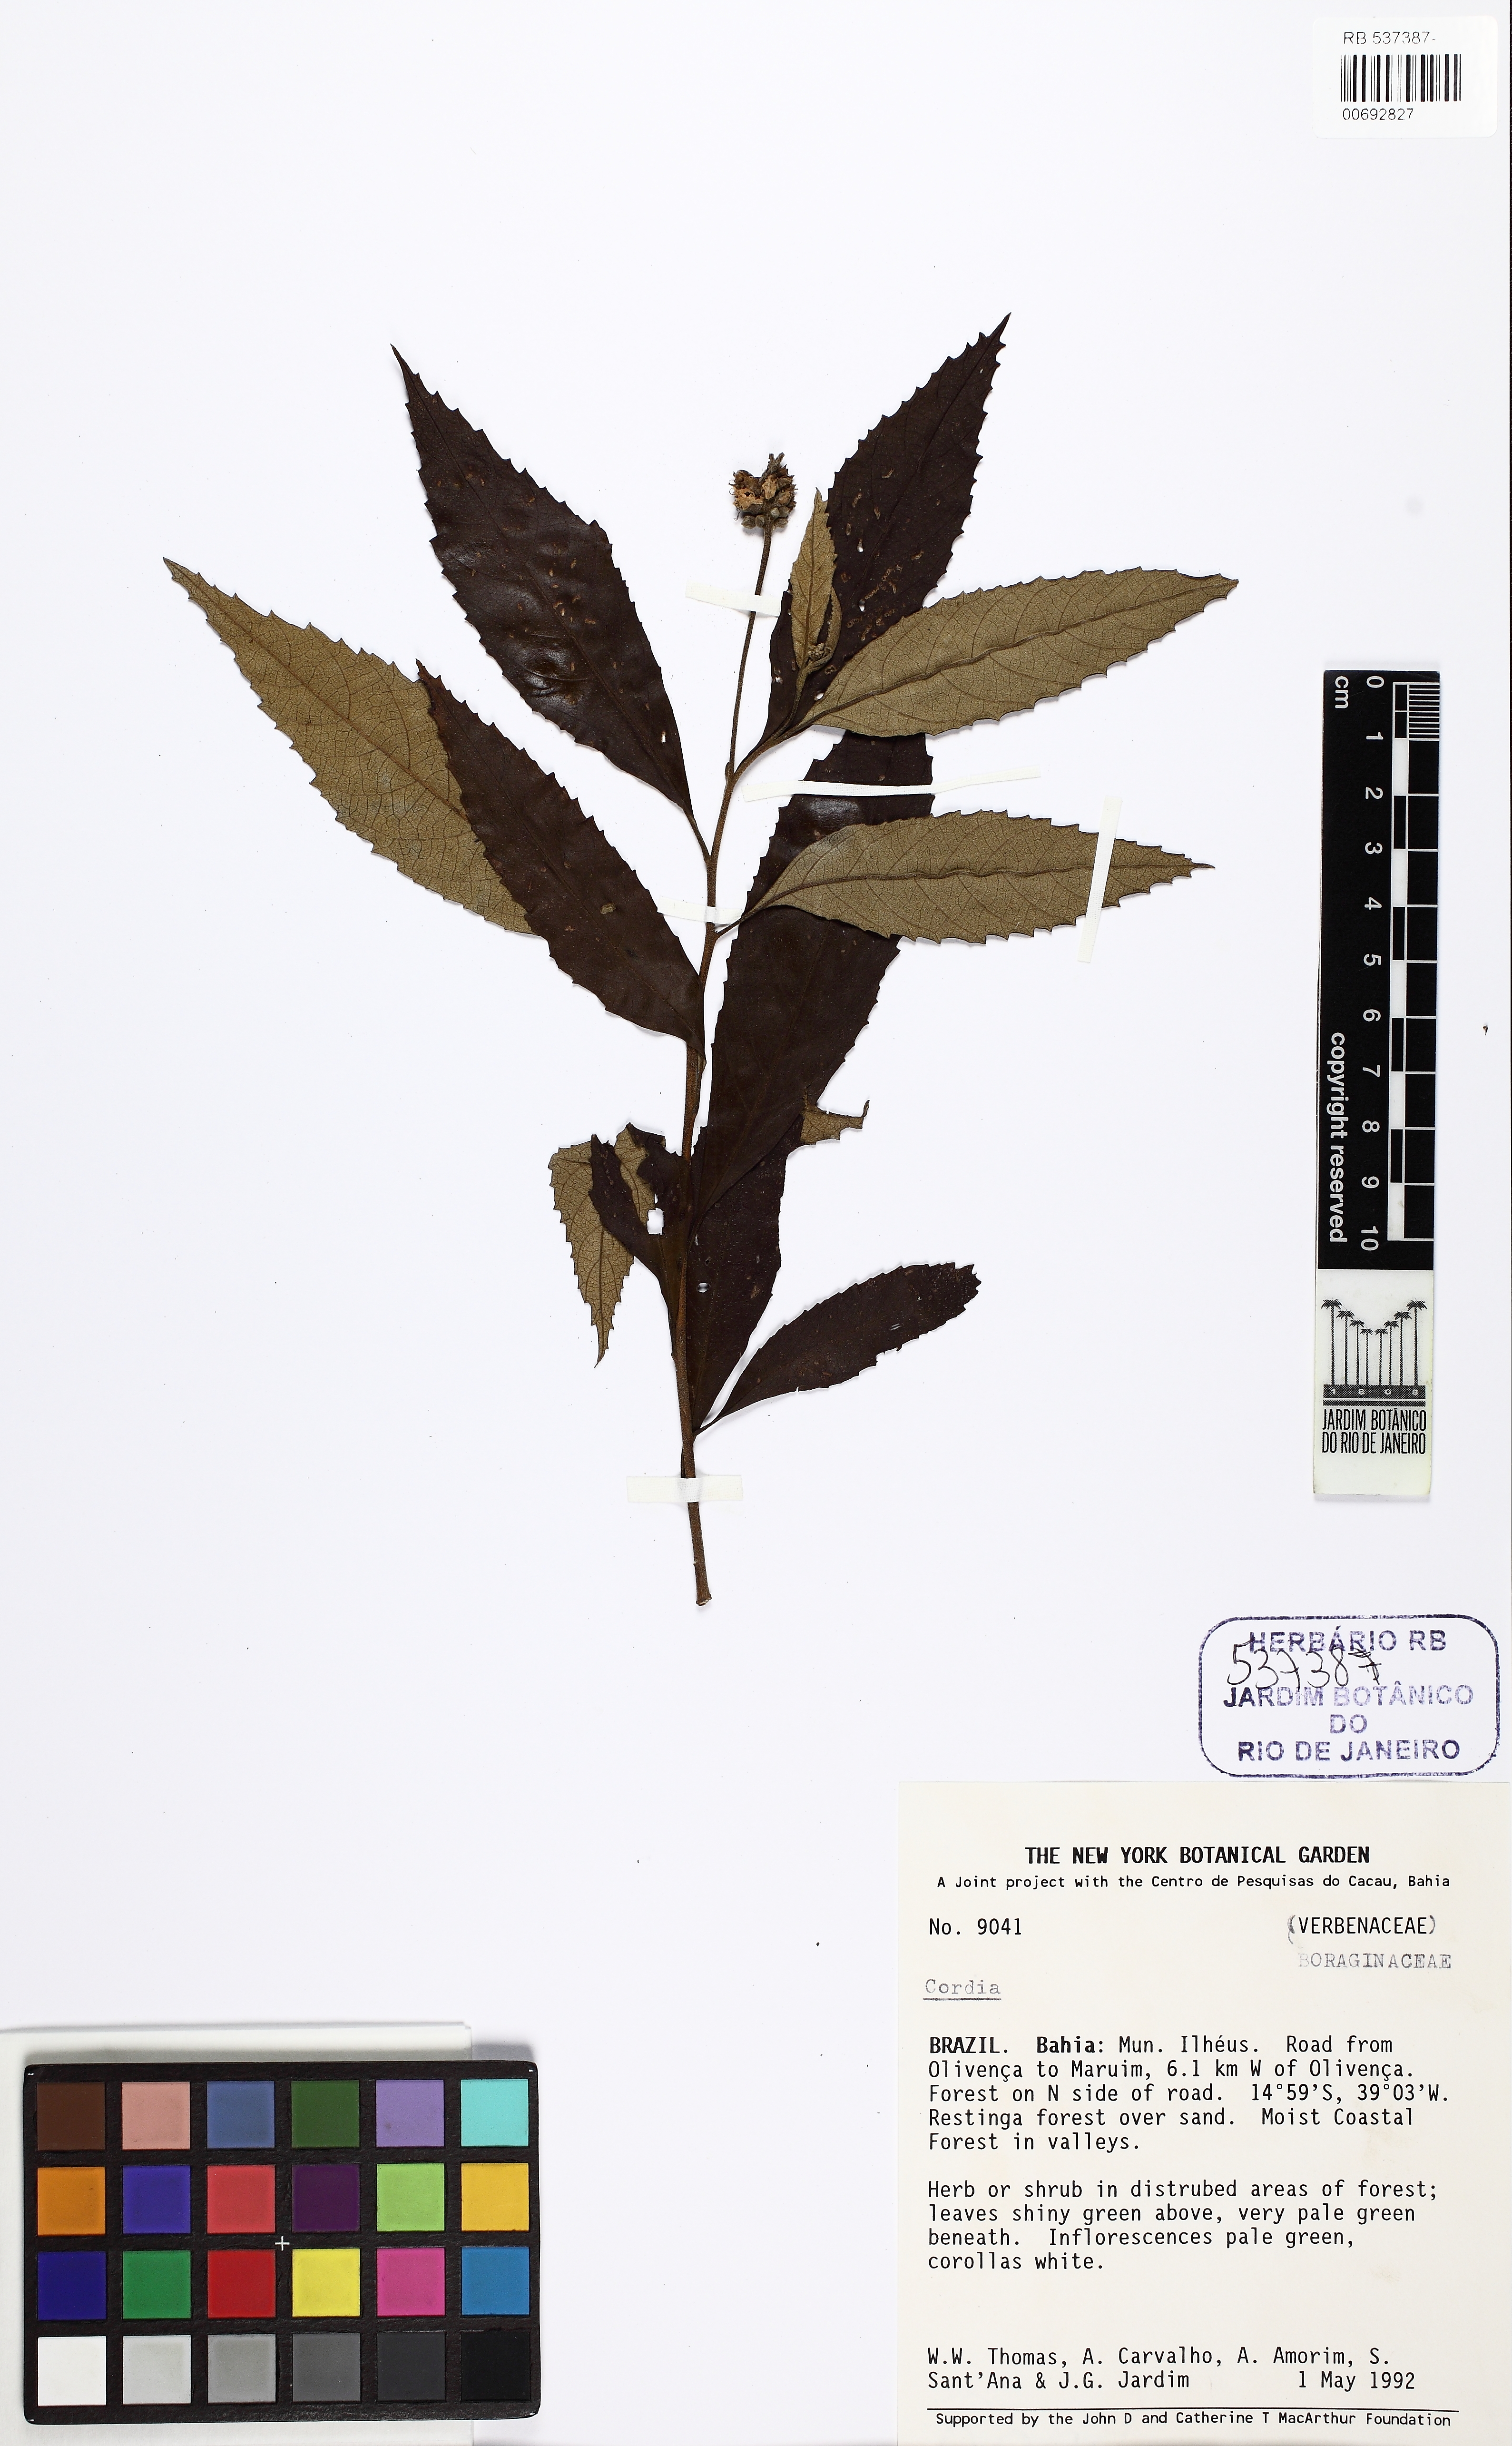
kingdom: Plantae
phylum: Tracheophyta
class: Magnoliopsida
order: Boraginales
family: Cordiaceae
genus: Cordia
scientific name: Cordia
